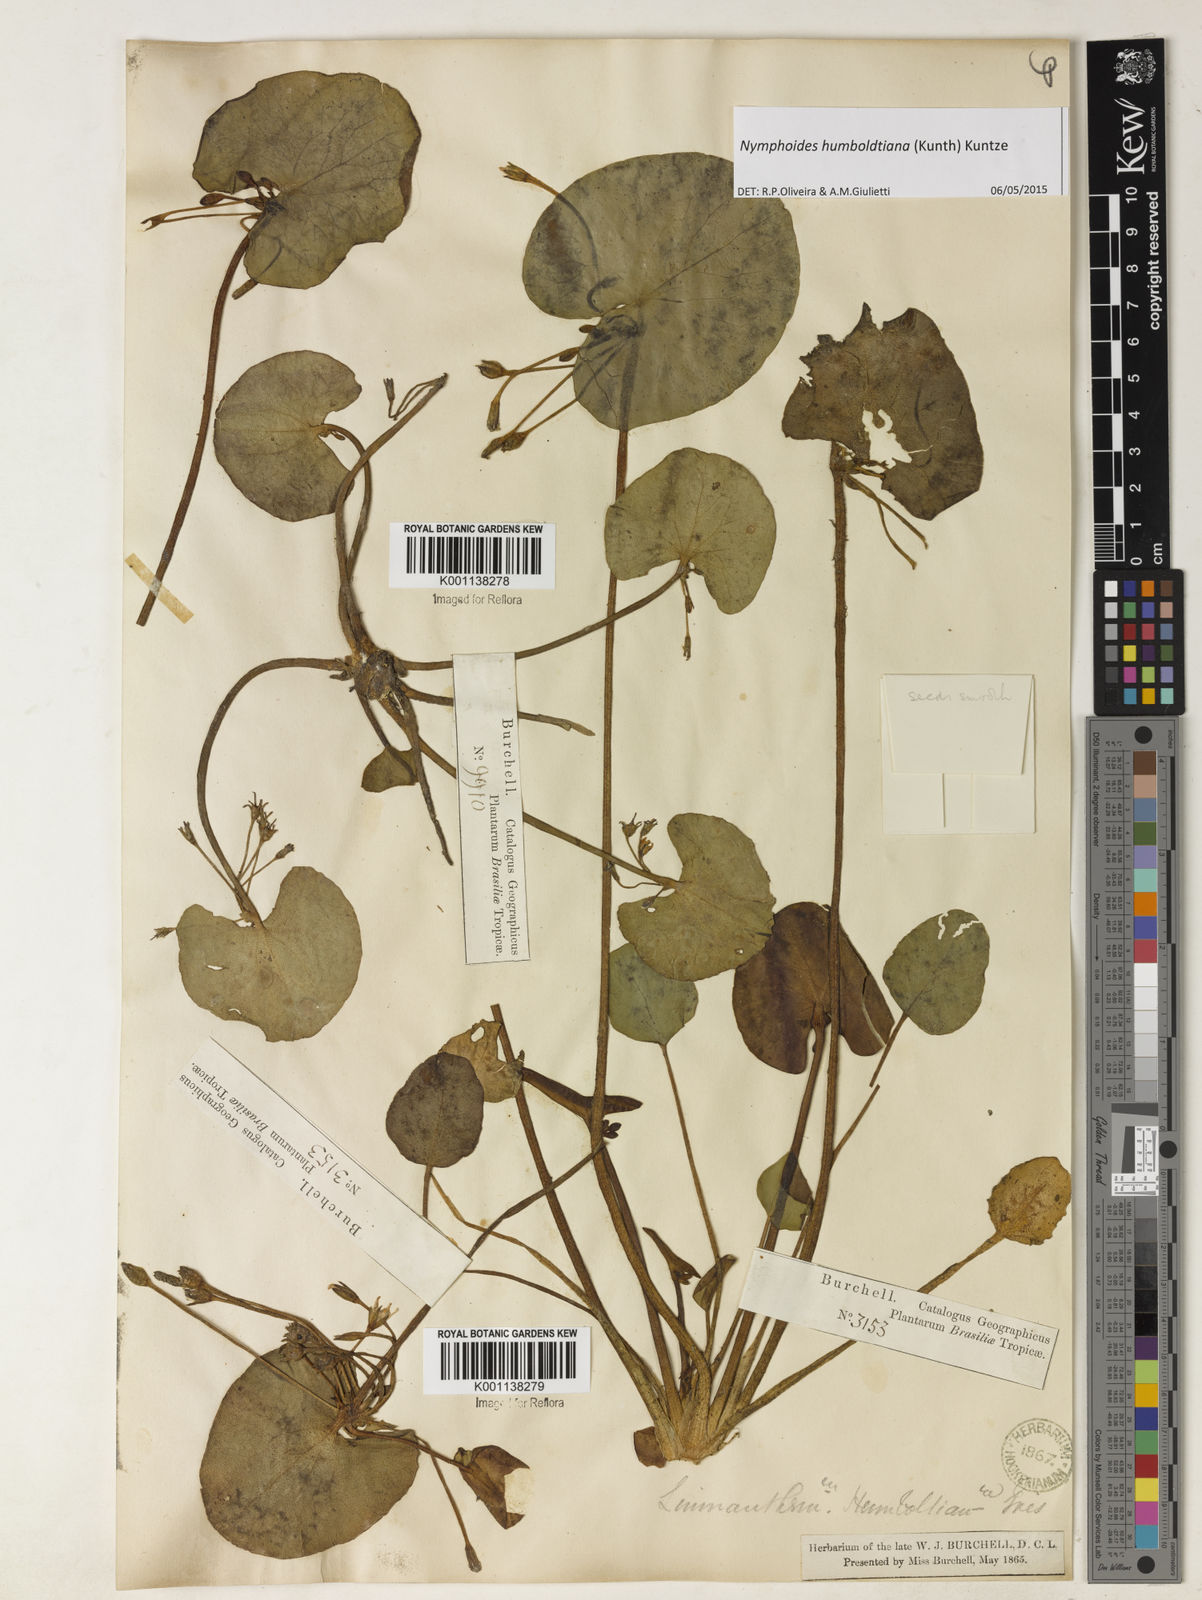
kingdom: Plantae
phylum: Tracheophyta
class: Magnoliopsida
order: Asterales
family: Menyanthaceae
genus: Nymphoides
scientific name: Nymphoides humboldtiana
